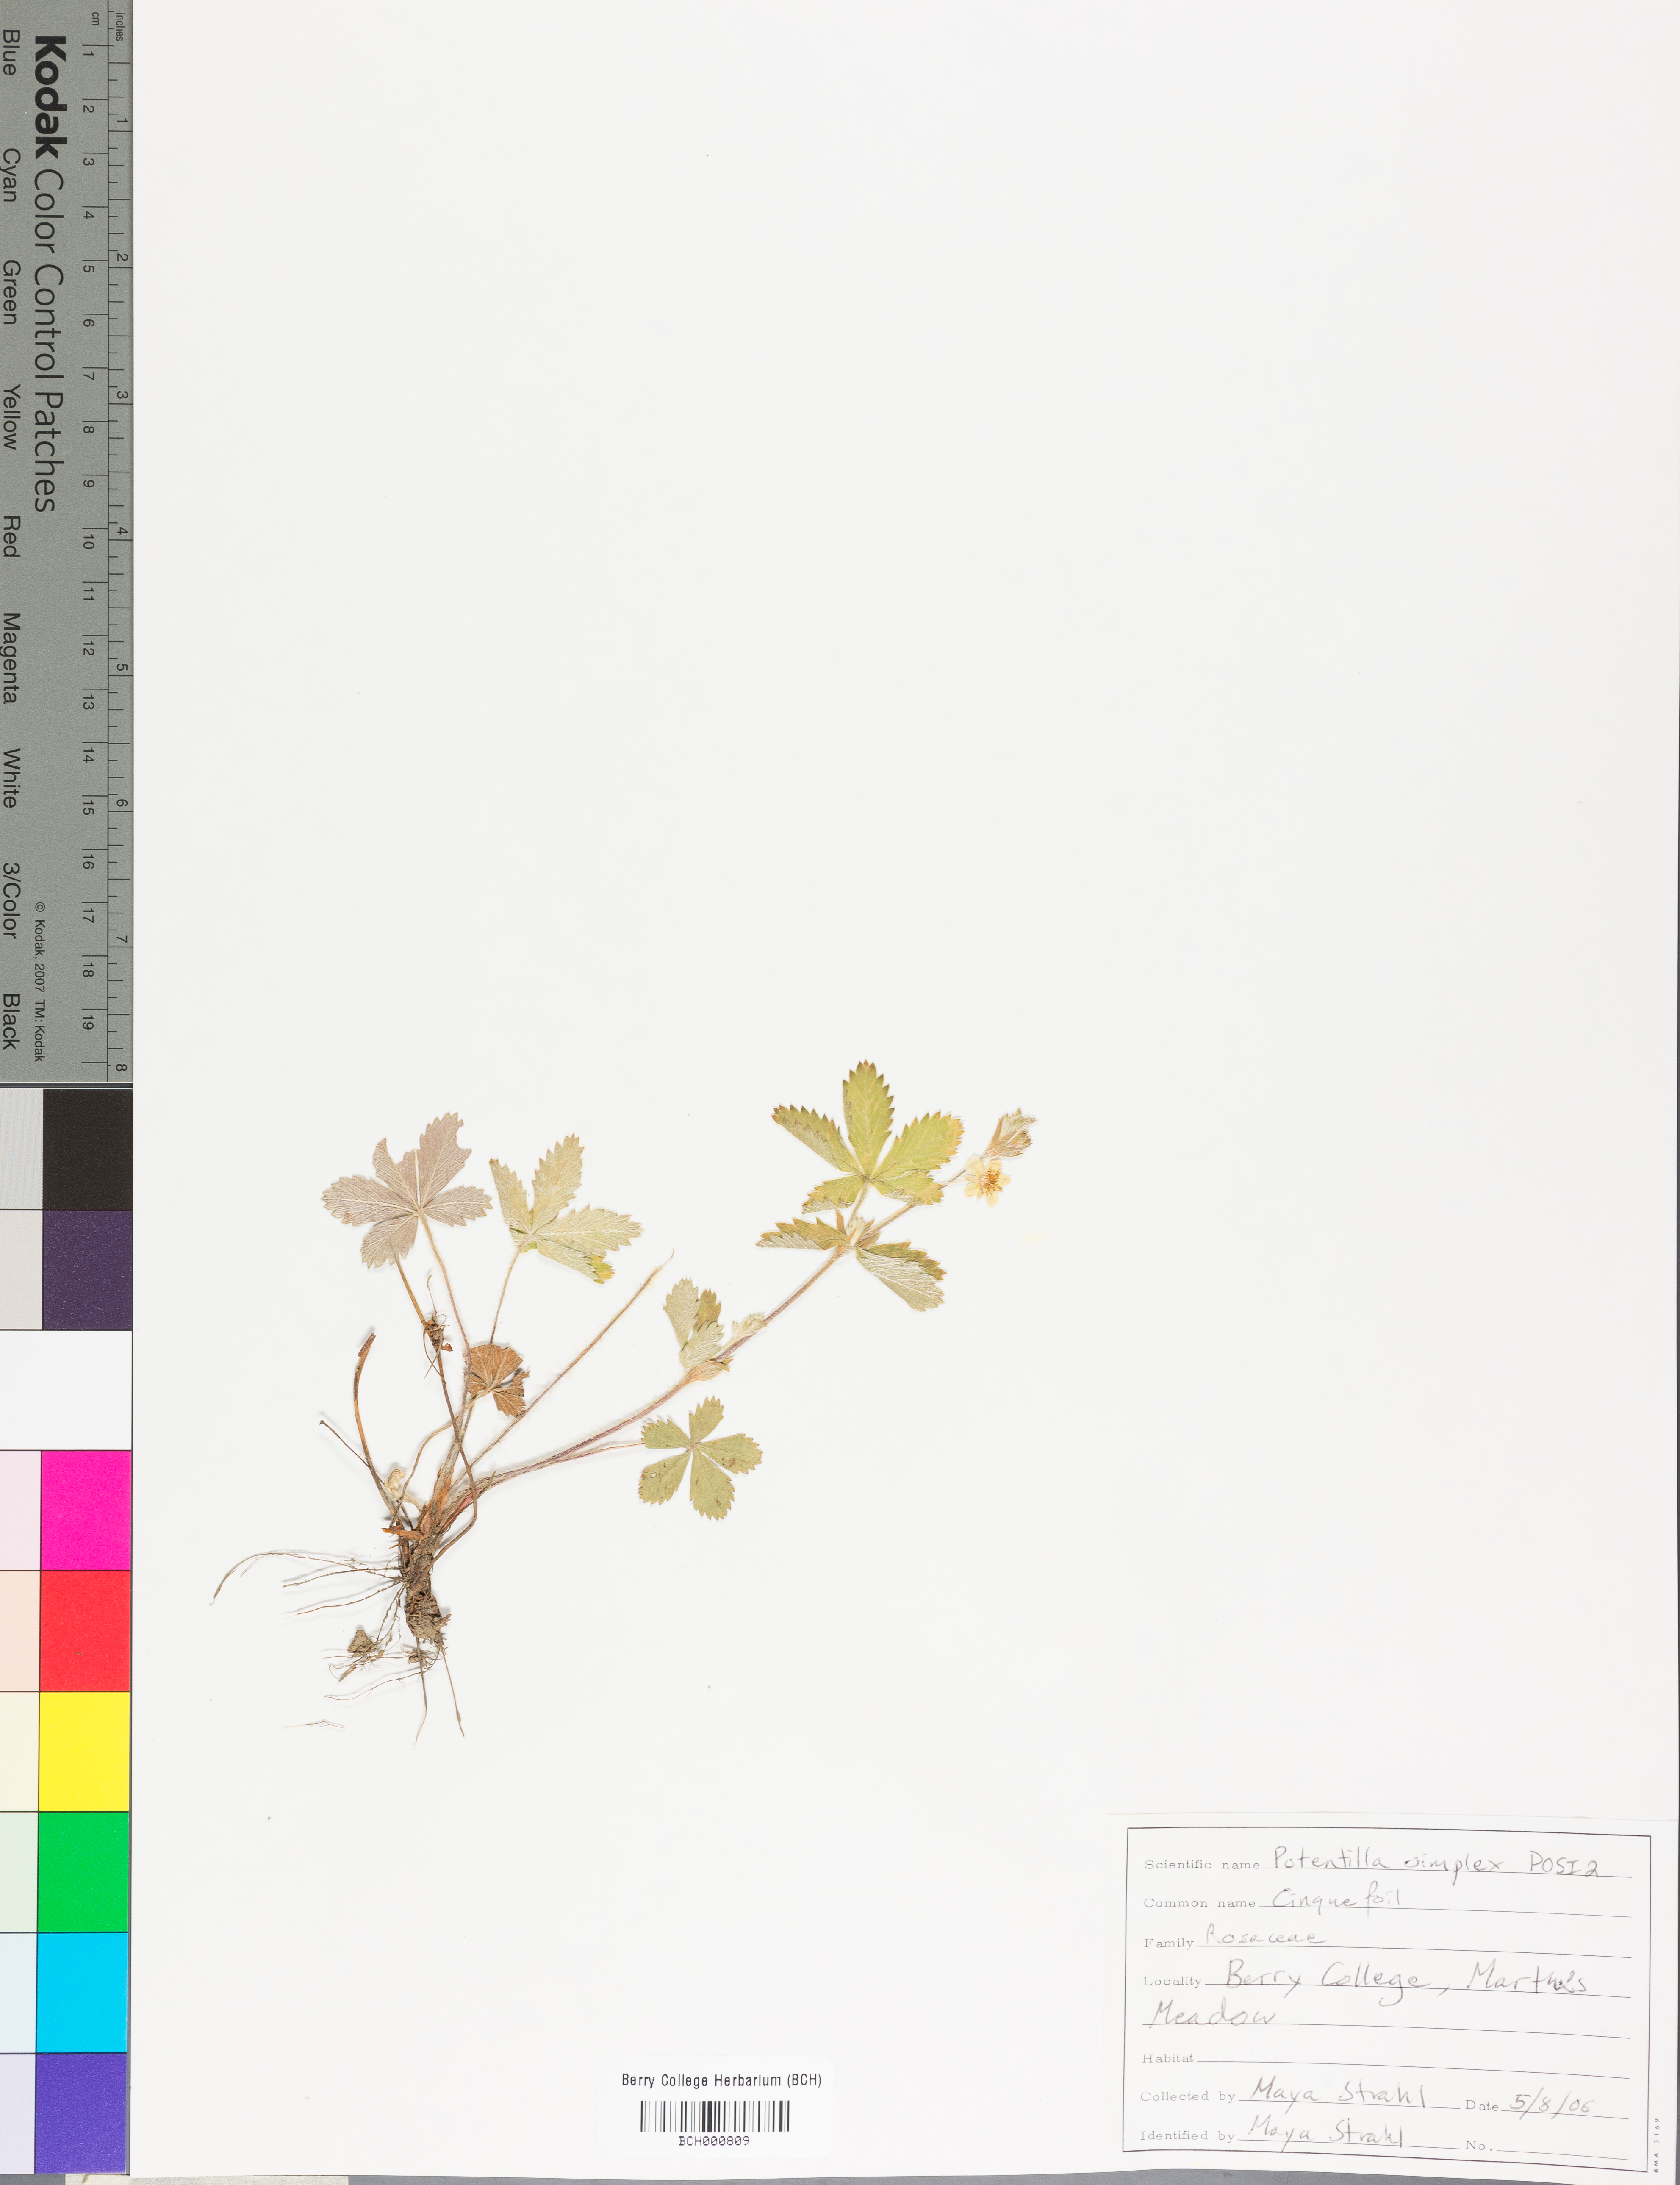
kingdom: Plantae
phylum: Tracheophyta
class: Magnoliopsida
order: Rosales
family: Rosaceae
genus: Potentilla
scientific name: Potentilla simplex
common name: Old field cinquefoil
